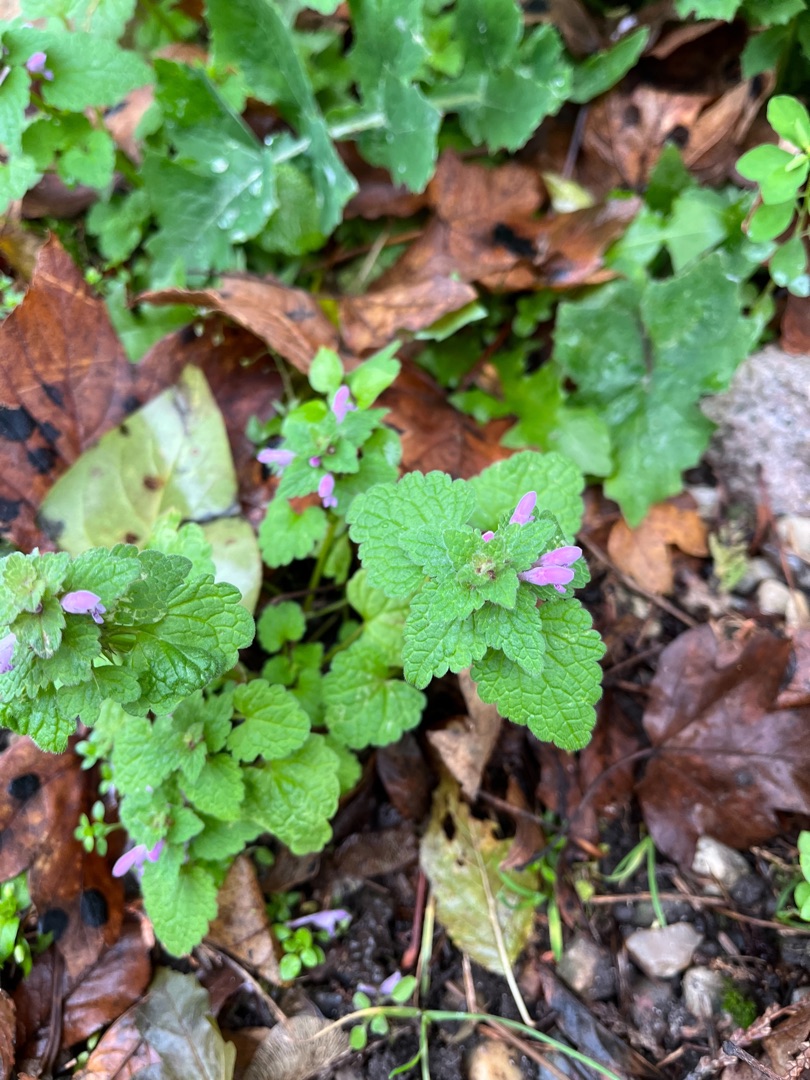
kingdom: Plantae
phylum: Tracheophyta
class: Magnoliopsida
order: Lamiales
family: Lamiaceae
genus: Lamium
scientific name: Lamium purpureum
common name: Rød tvetand
